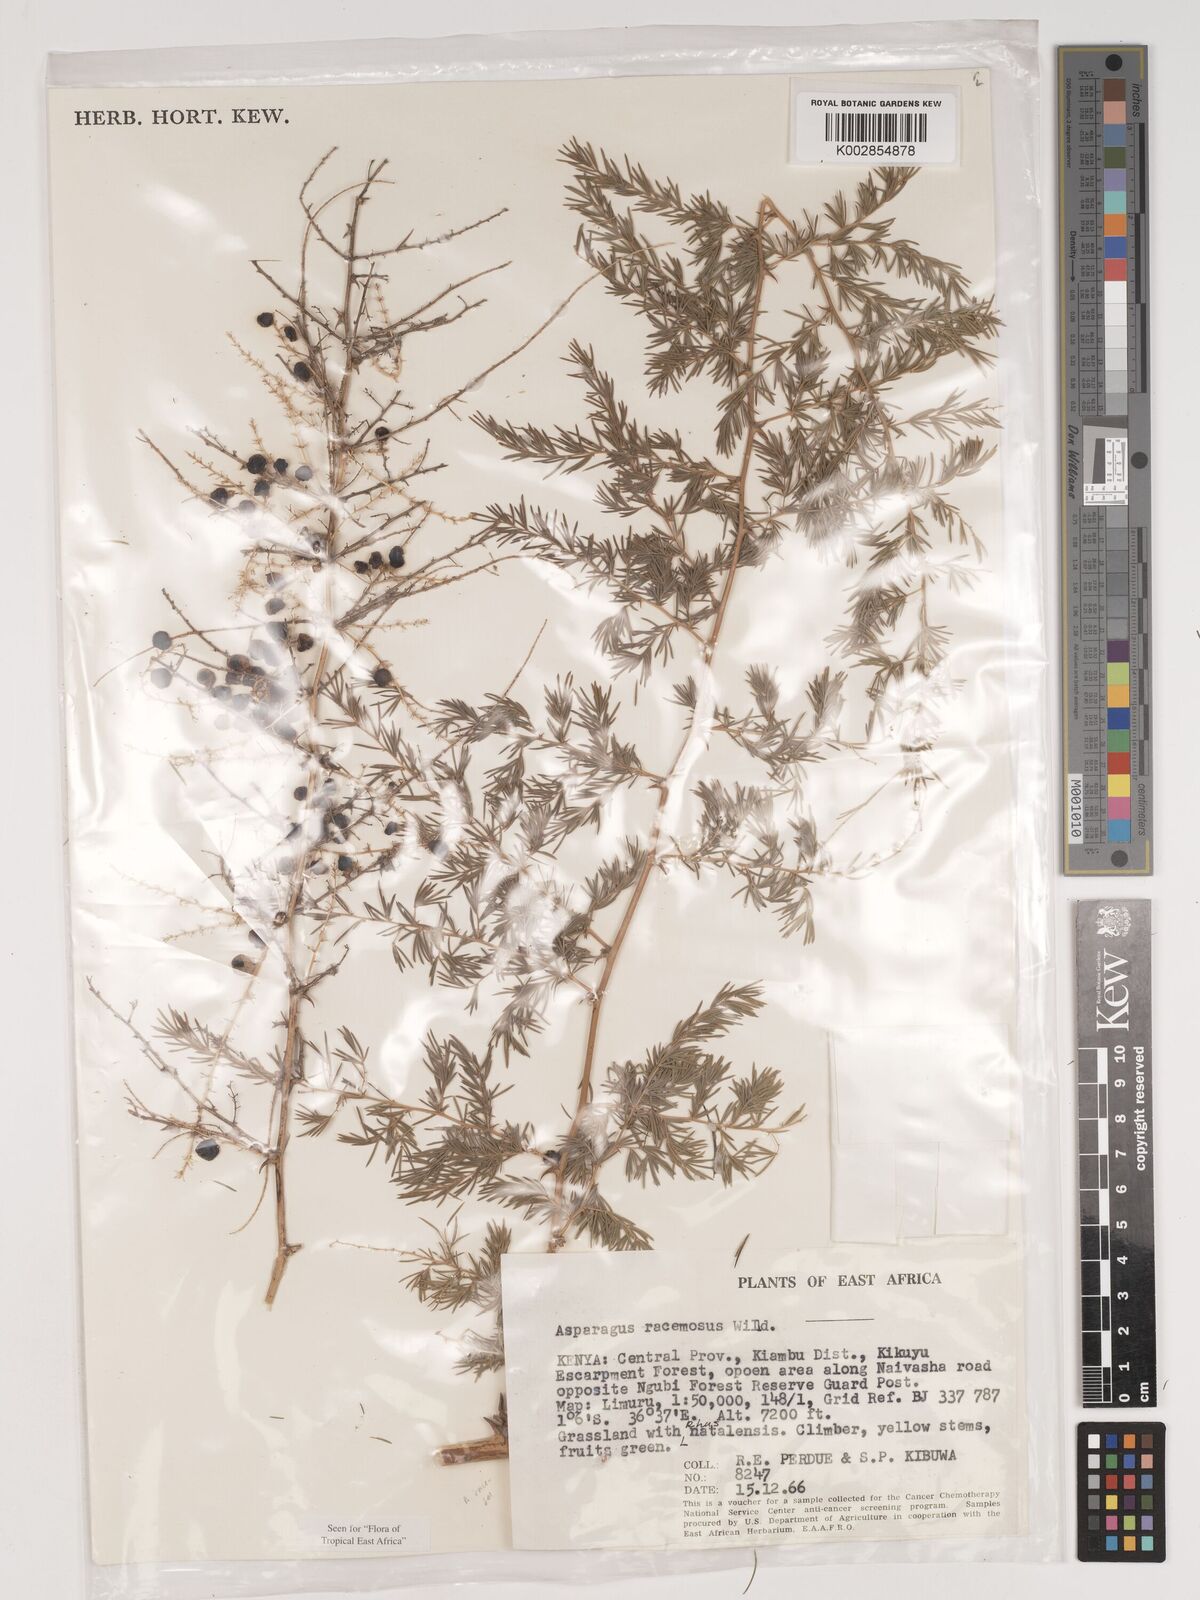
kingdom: Plantae
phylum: Tracheophyta
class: Liliopsida
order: Asparagales
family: Asparagaceae
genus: Asparagus
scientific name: Asparagus racemosus
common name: Asparagus-fern
